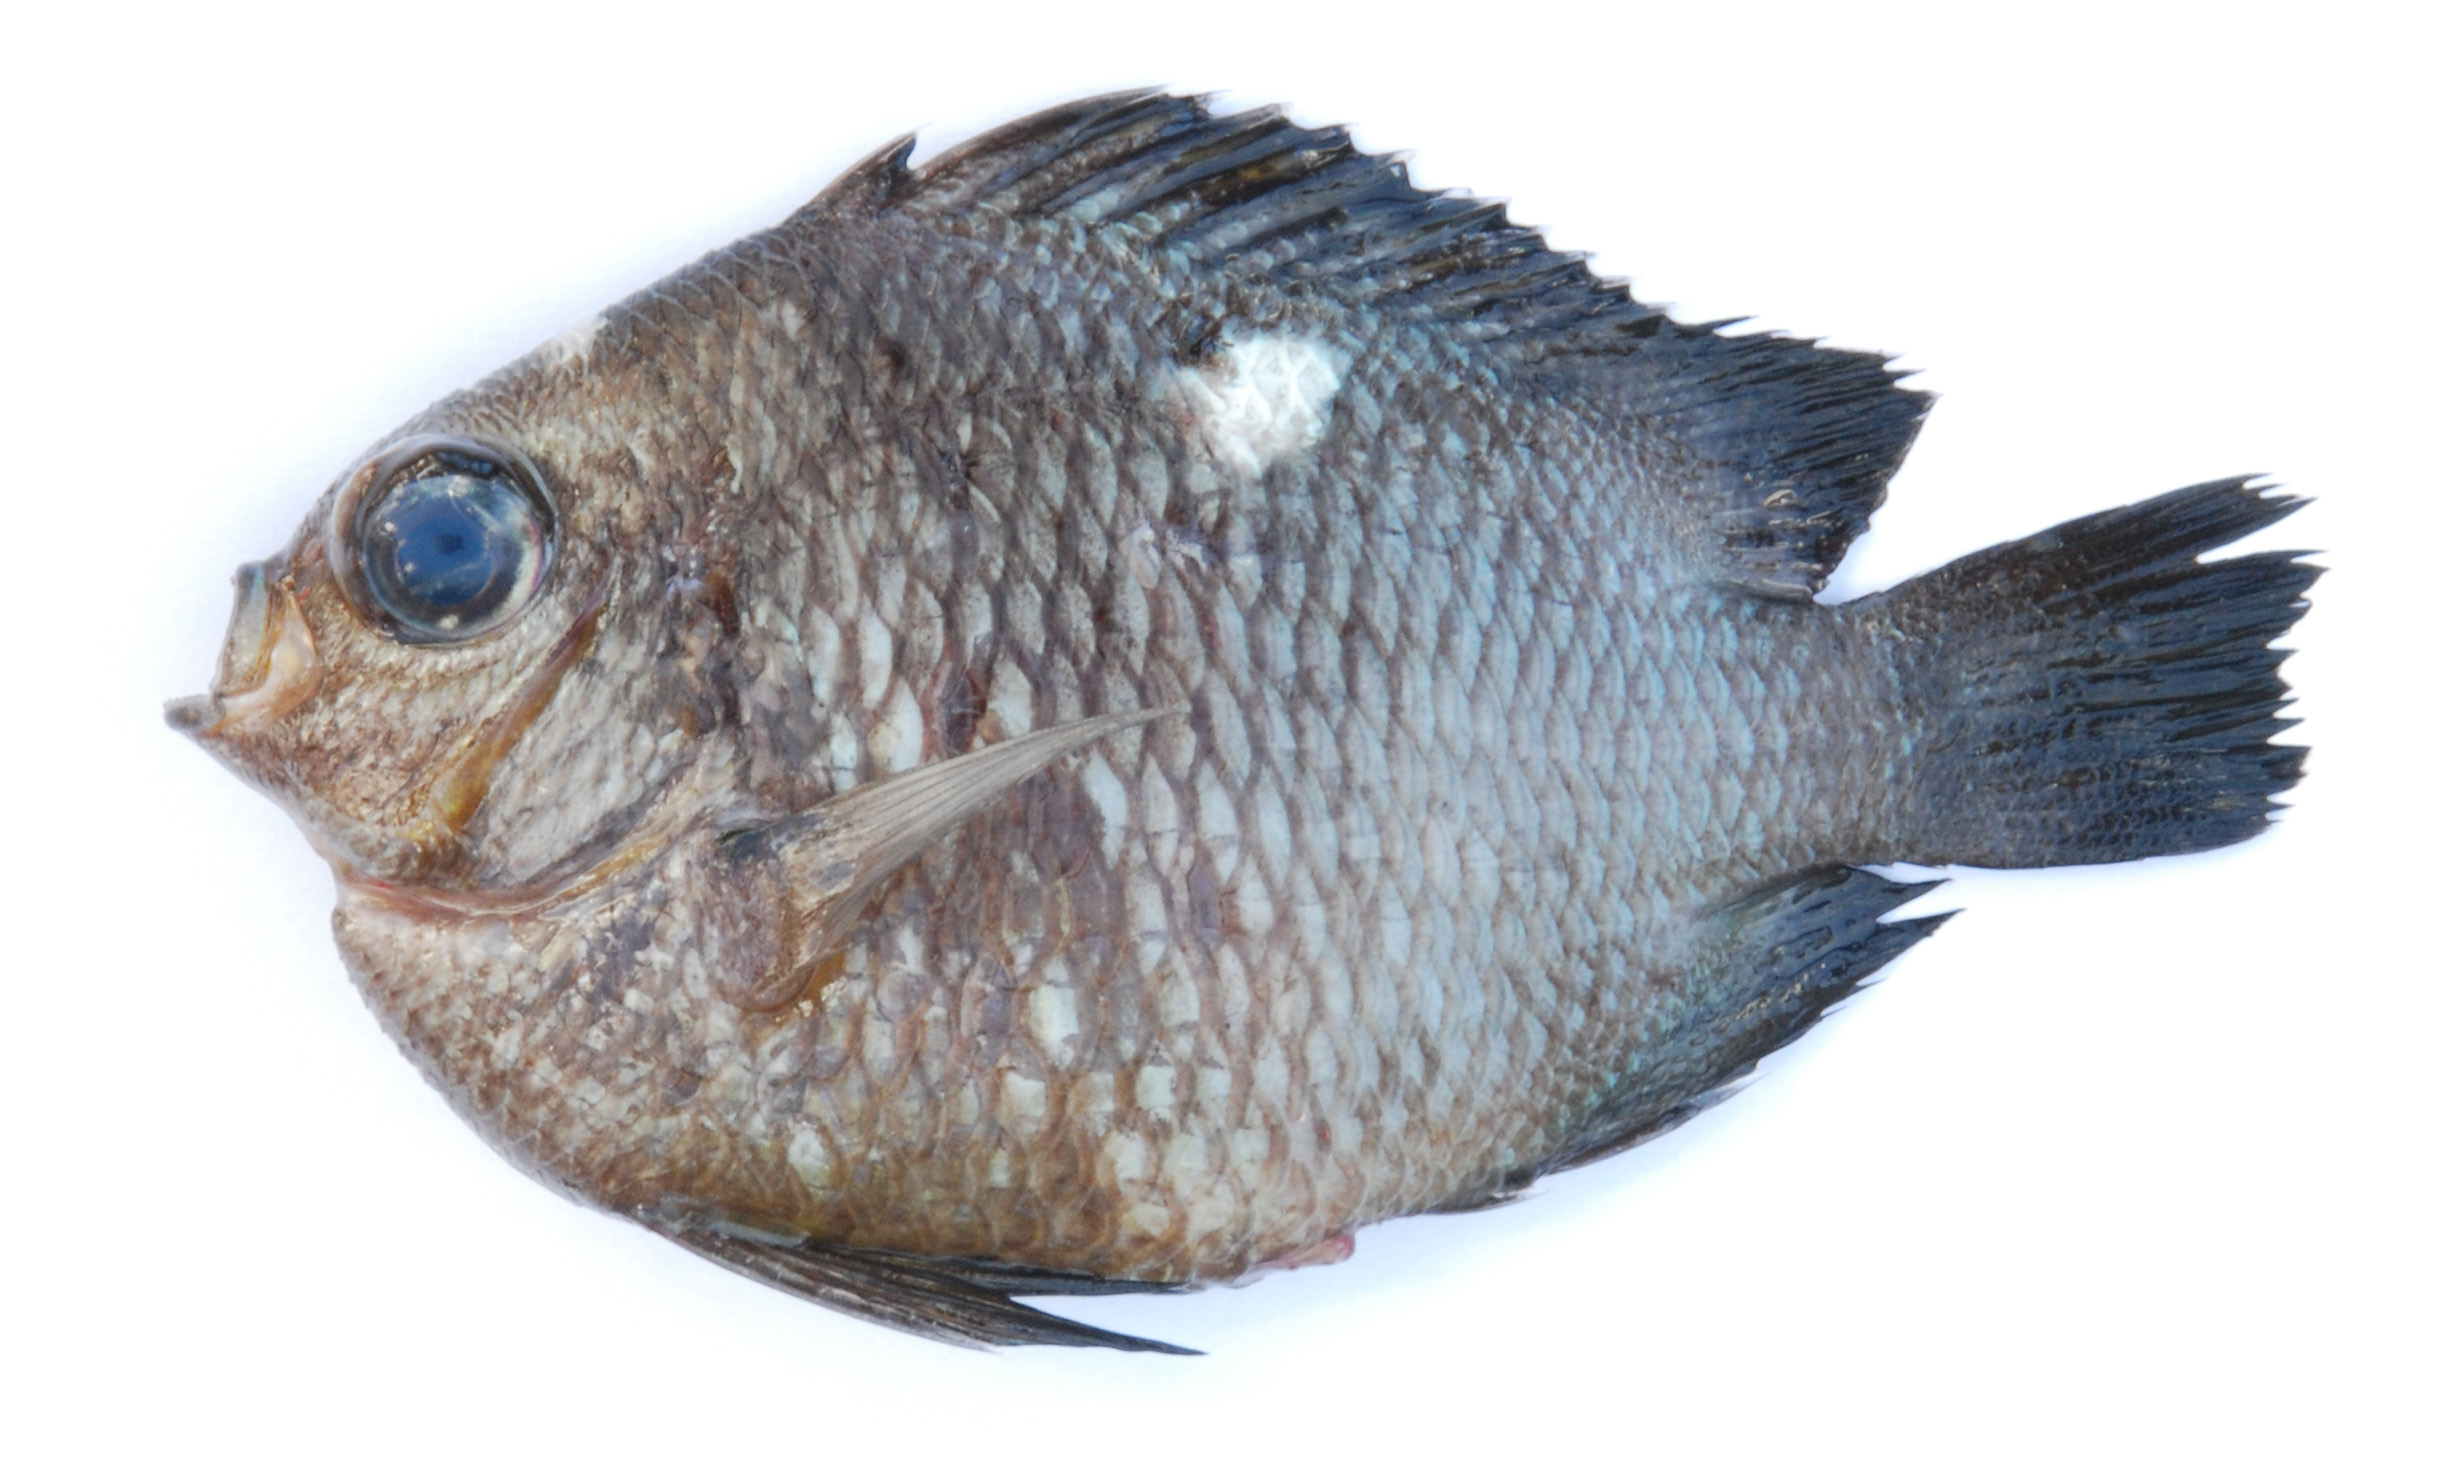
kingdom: Animalia
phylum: Chordata
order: Perciformes
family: Pomacentridae
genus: Dascyllus
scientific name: Dascyllus trimaculatus
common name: Threespot dascyllus
